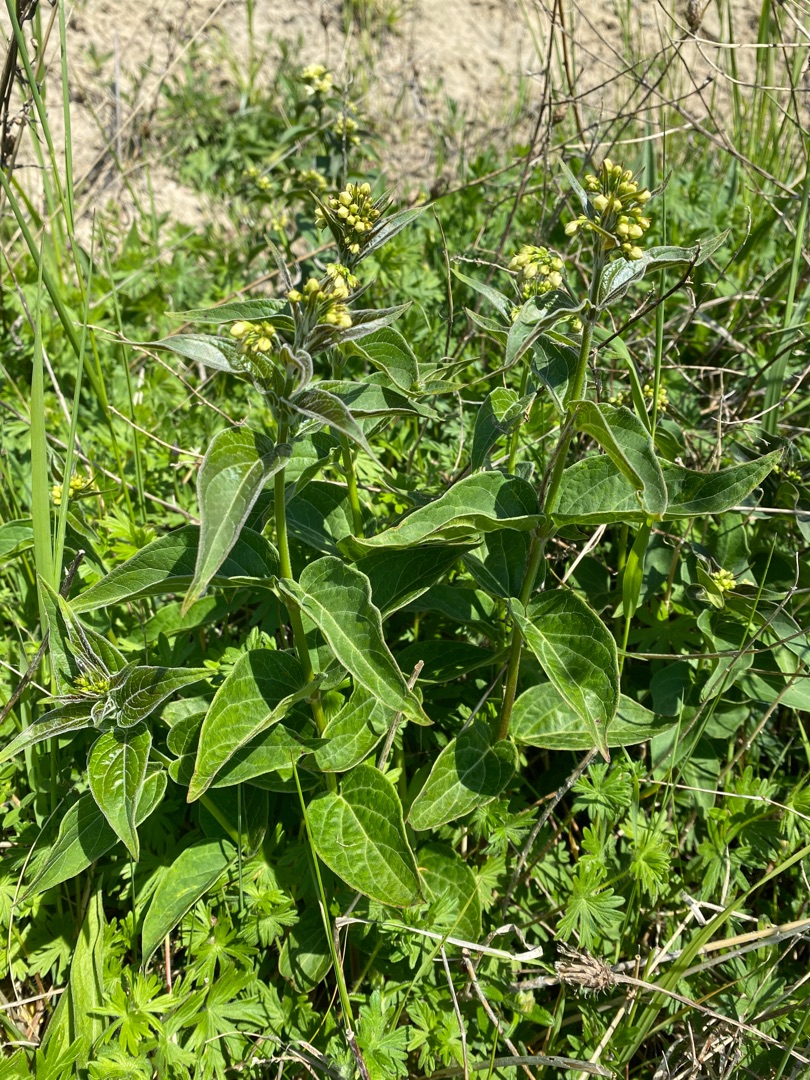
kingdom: Plantae
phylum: Tracheophyta
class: Magnoliopsida
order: Gentianales
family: Apocynaceae
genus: Vincetoxicum
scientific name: Vincetoxicum hirundinaria
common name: Svalerod
